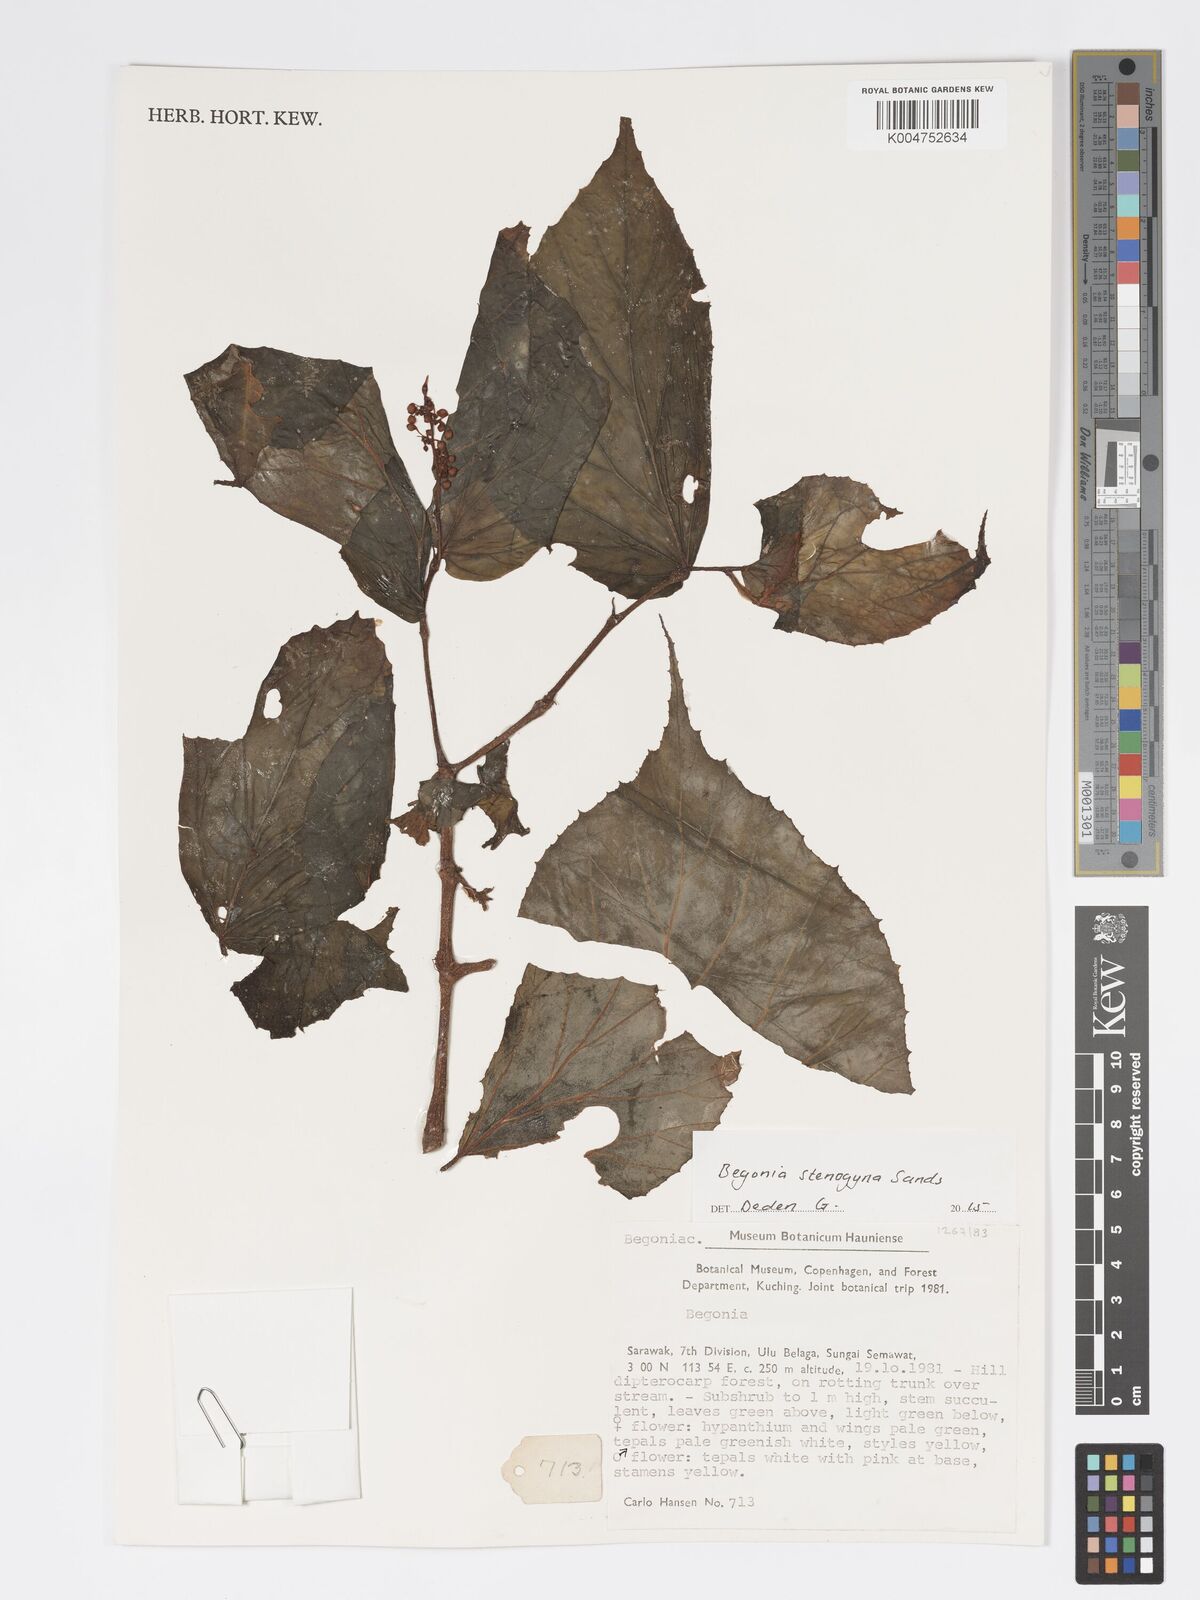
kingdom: Plantae
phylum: Tracheophyta
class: Magnoliopsida
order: Cucurbitales
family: Begoniaceae
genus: Begonia
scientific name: Begonia stenogyna
